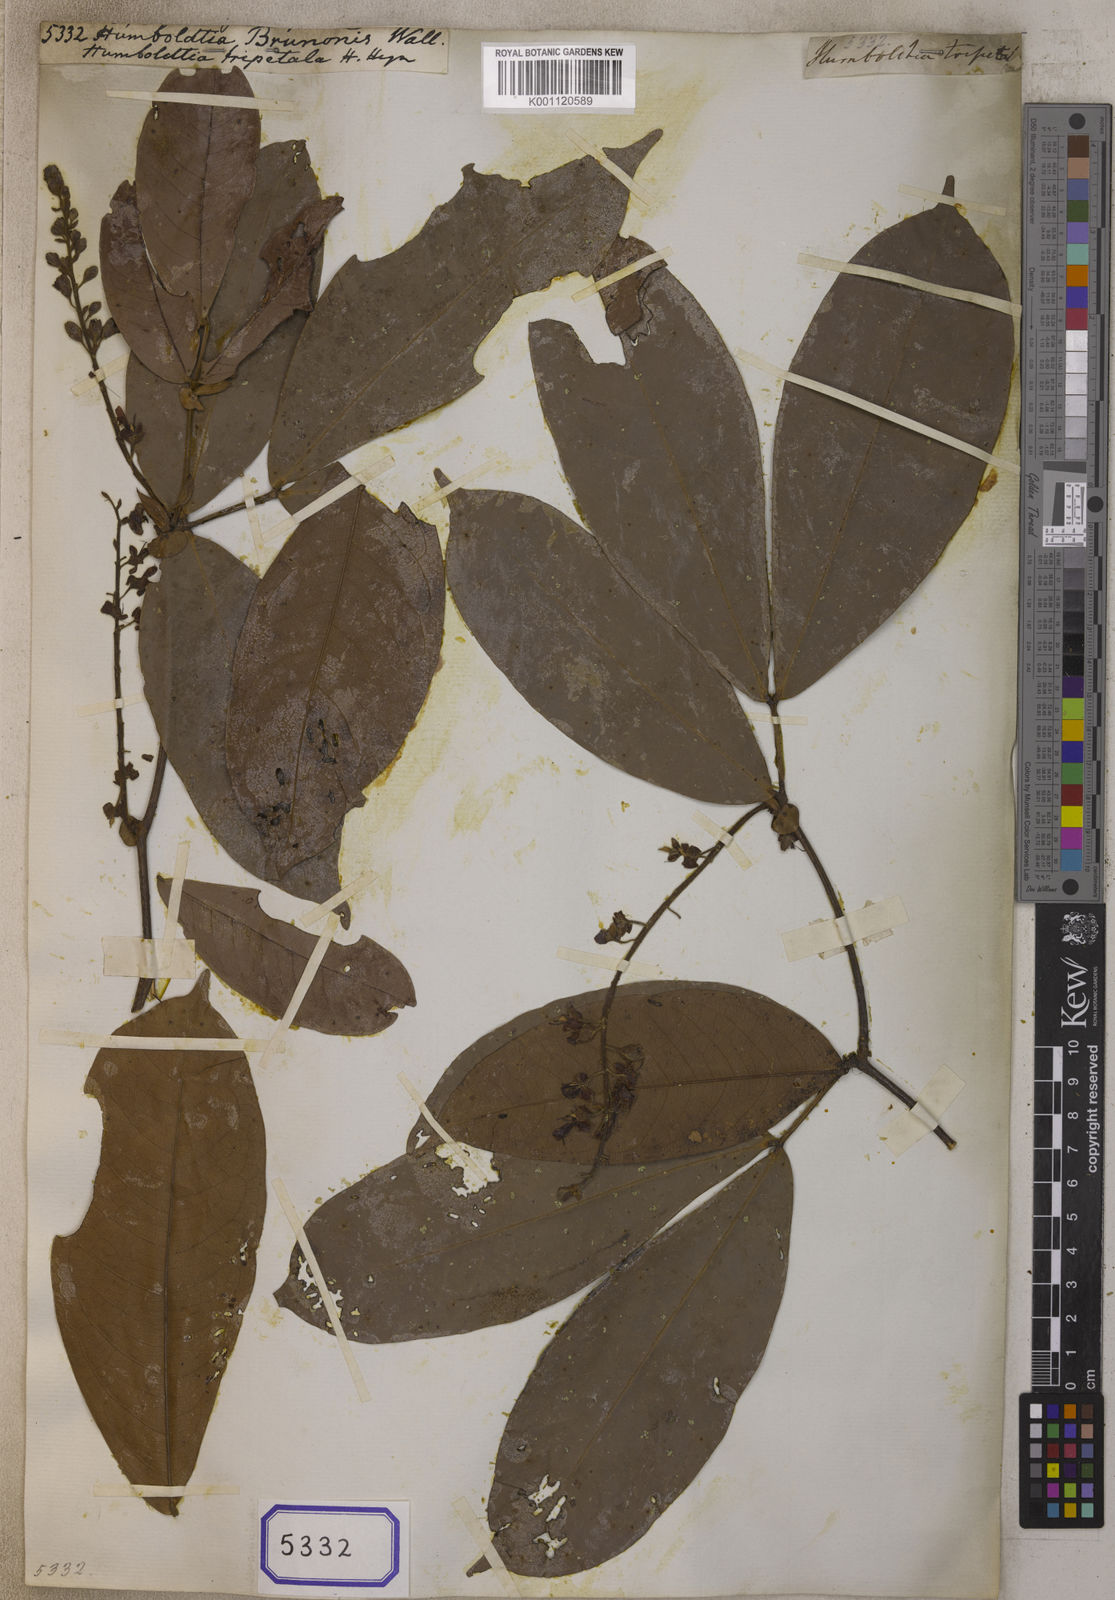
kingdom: Plantae
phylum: Tracheophyta
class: Magnoliopsida
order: Fabales
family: Fabaceae
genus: Humboldtia
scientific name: Humboldtia brunonis
